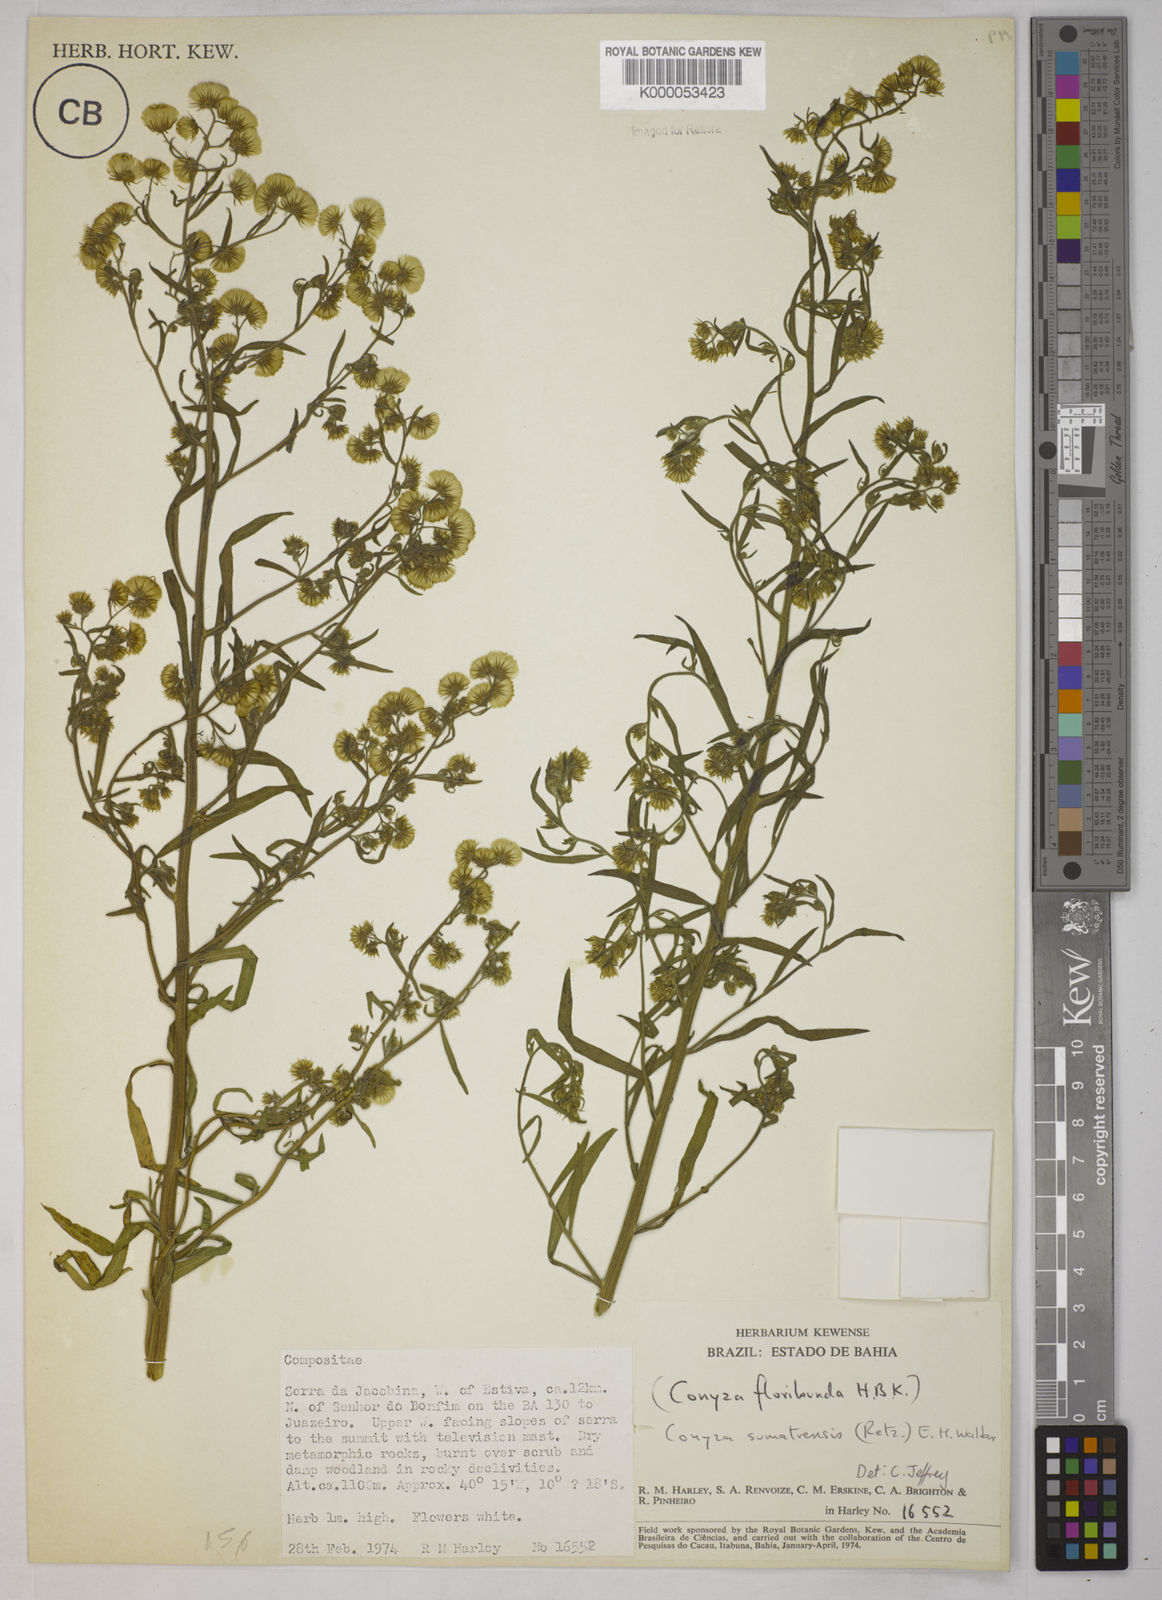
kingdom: Plantae
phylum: Tracheophyta
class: Magnoliopsida
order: Asterales
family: Asteraceae
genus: Erigeron
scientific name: Erigeron sumatrensis
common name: Daisy
